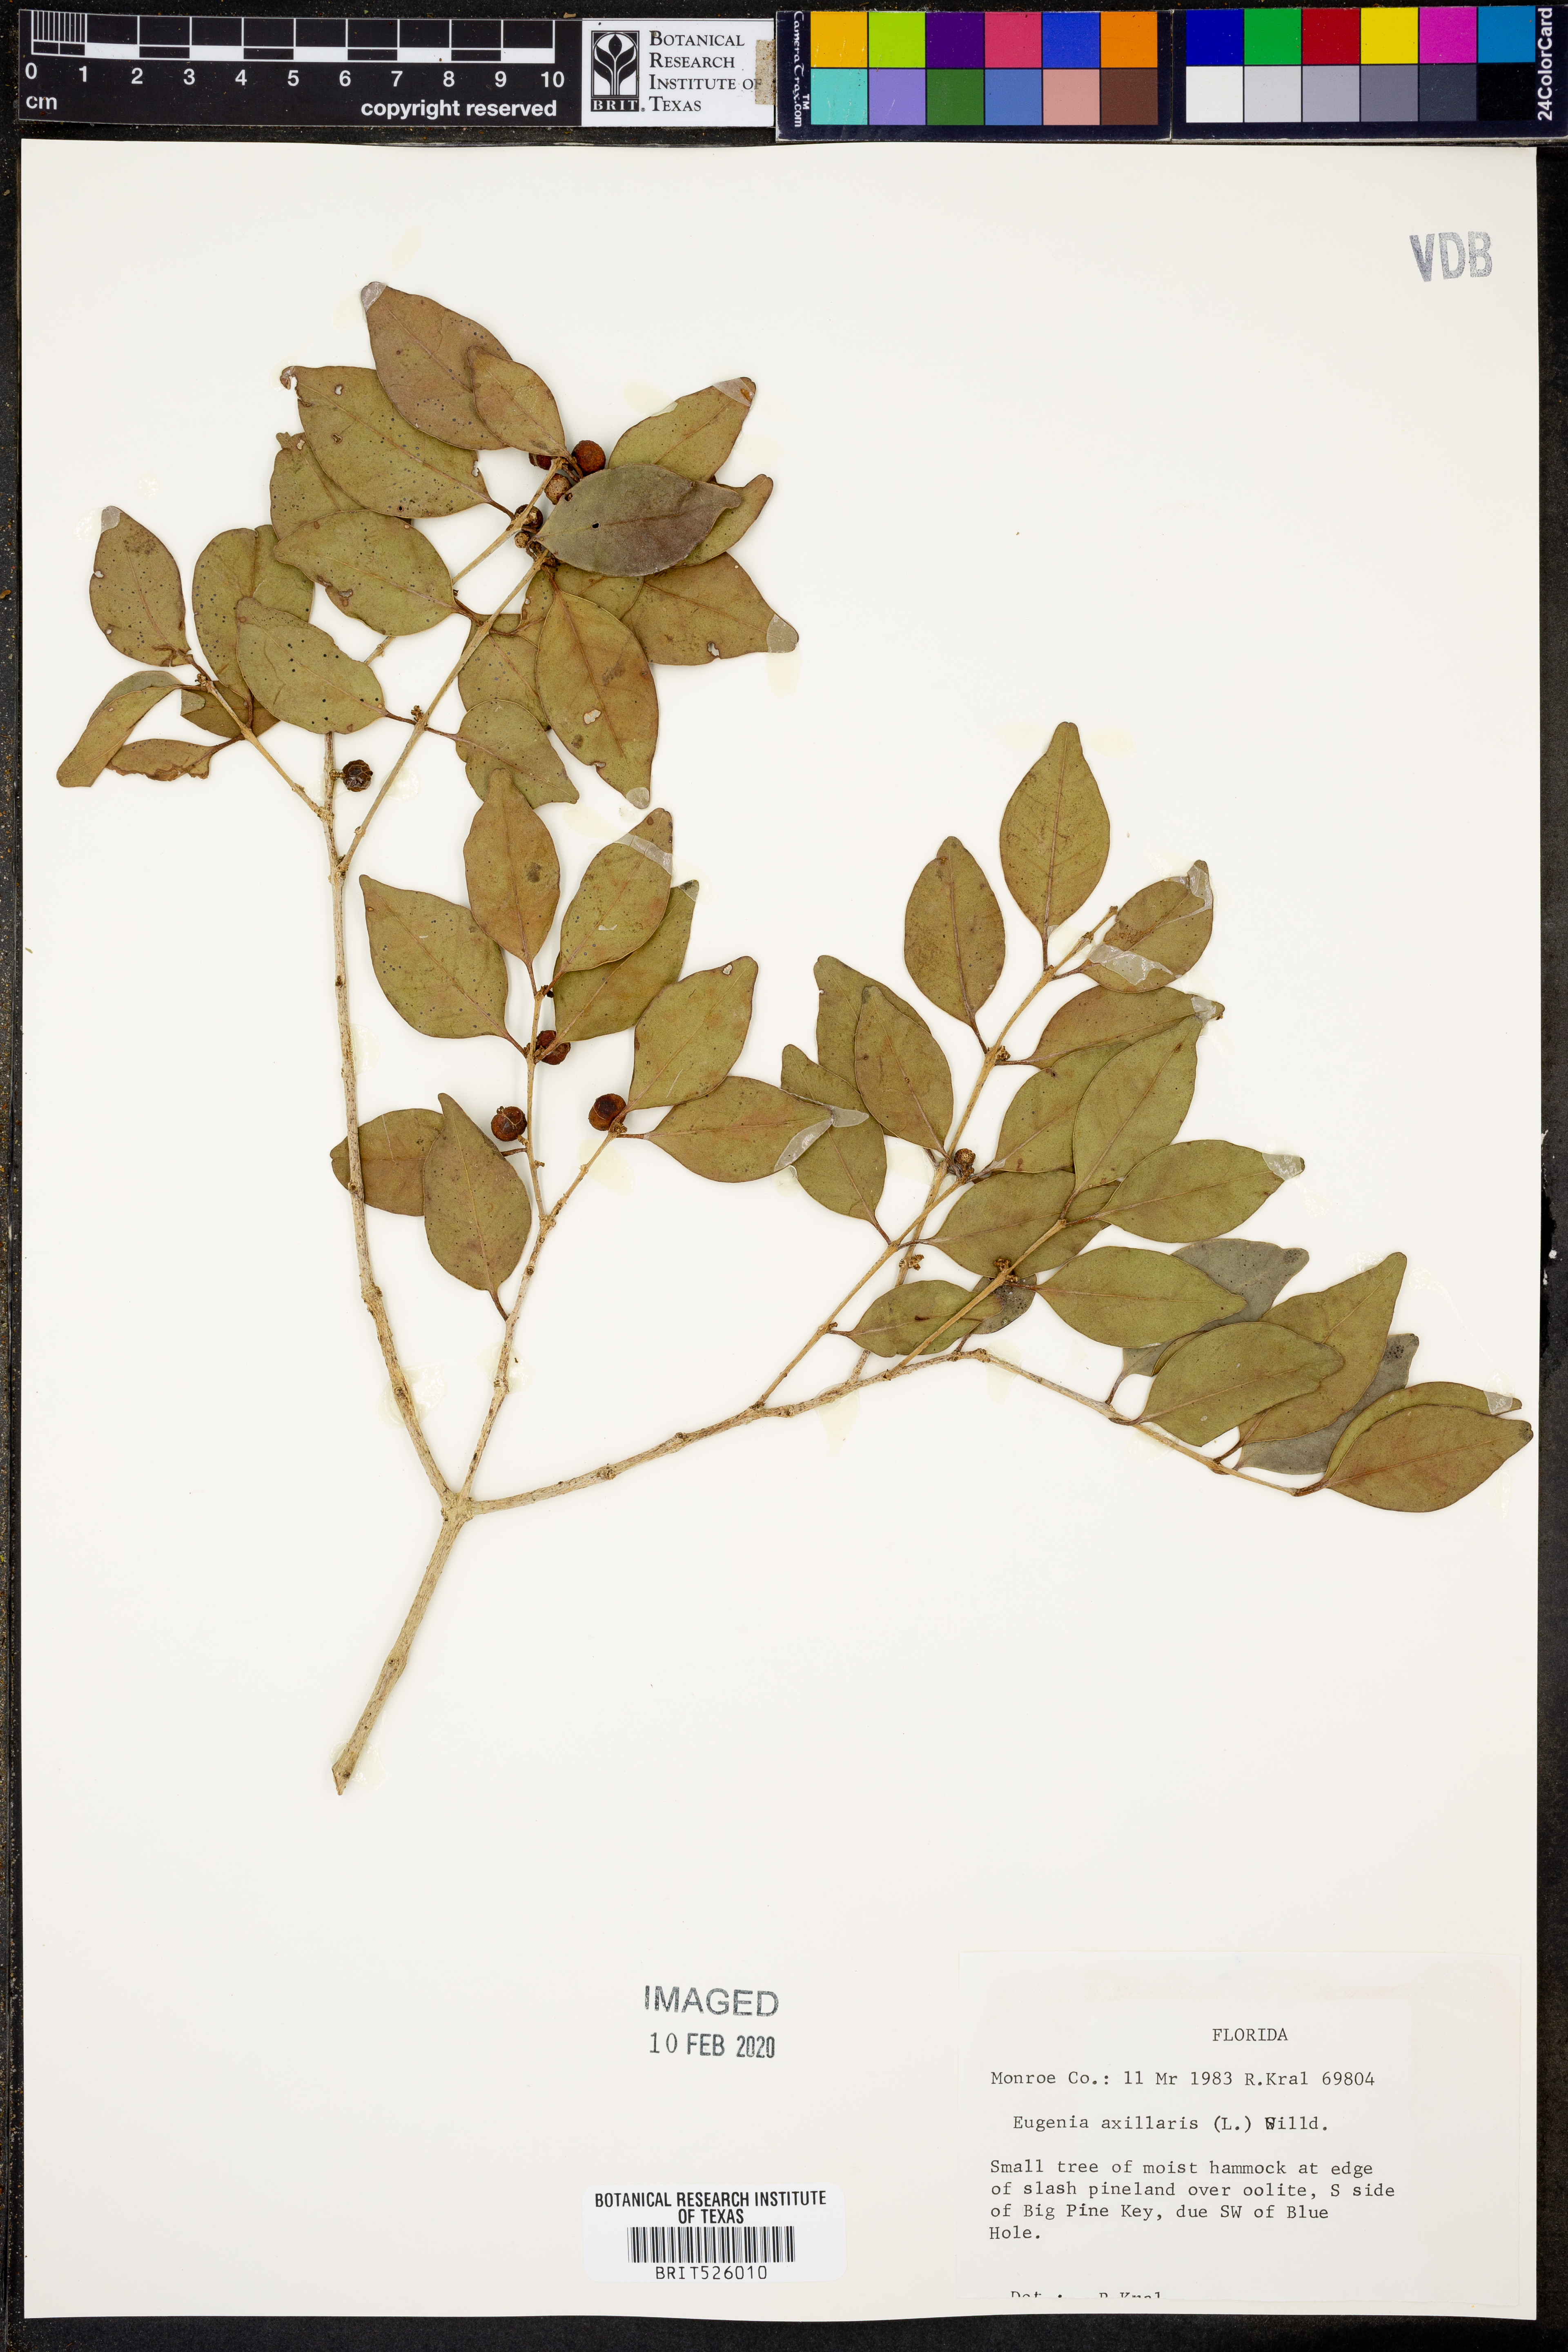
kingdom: Plantae
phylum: Tracheophyta
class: Magnoliopsida
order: Myrtales
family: Myrtaceae
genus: Eugenia
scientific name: Eugenia axillaris
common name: Choaky berry
